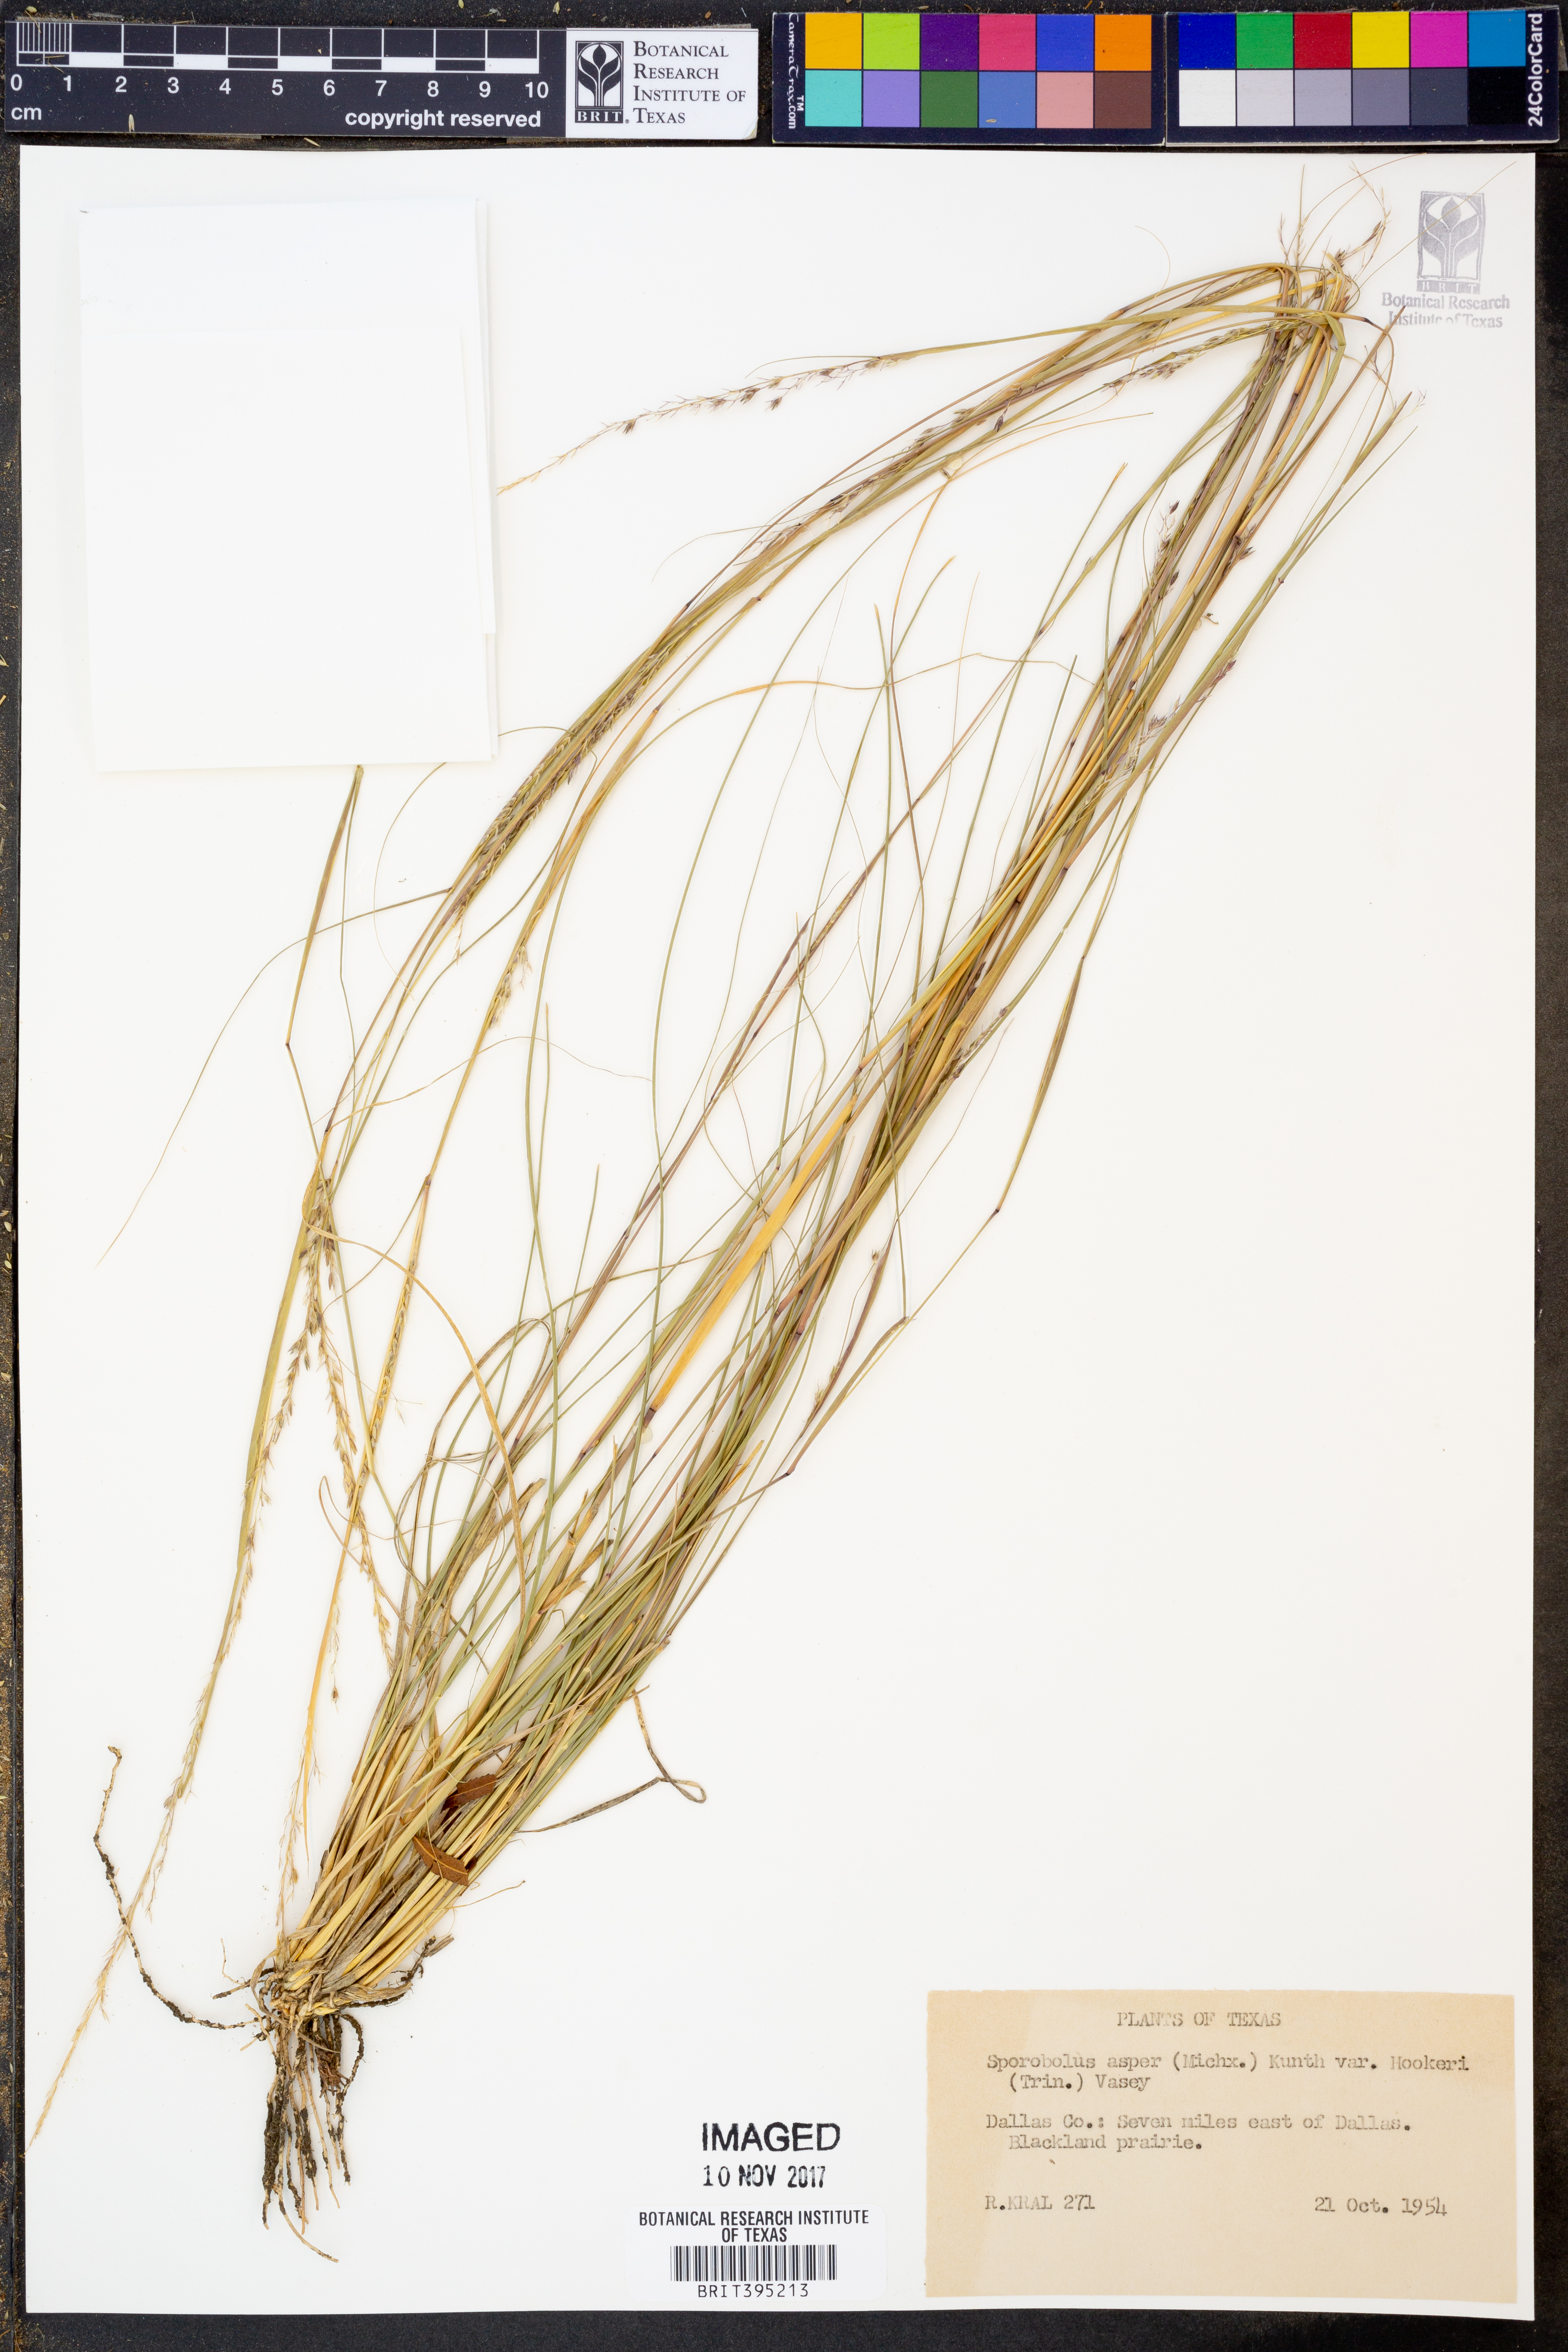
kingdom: Plantae
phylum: Tracheophyta
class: Liliopsida
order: Poales
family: Poaceae
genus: Sporobolus
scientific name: Sporobolus compositus
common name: Rough dropseed
